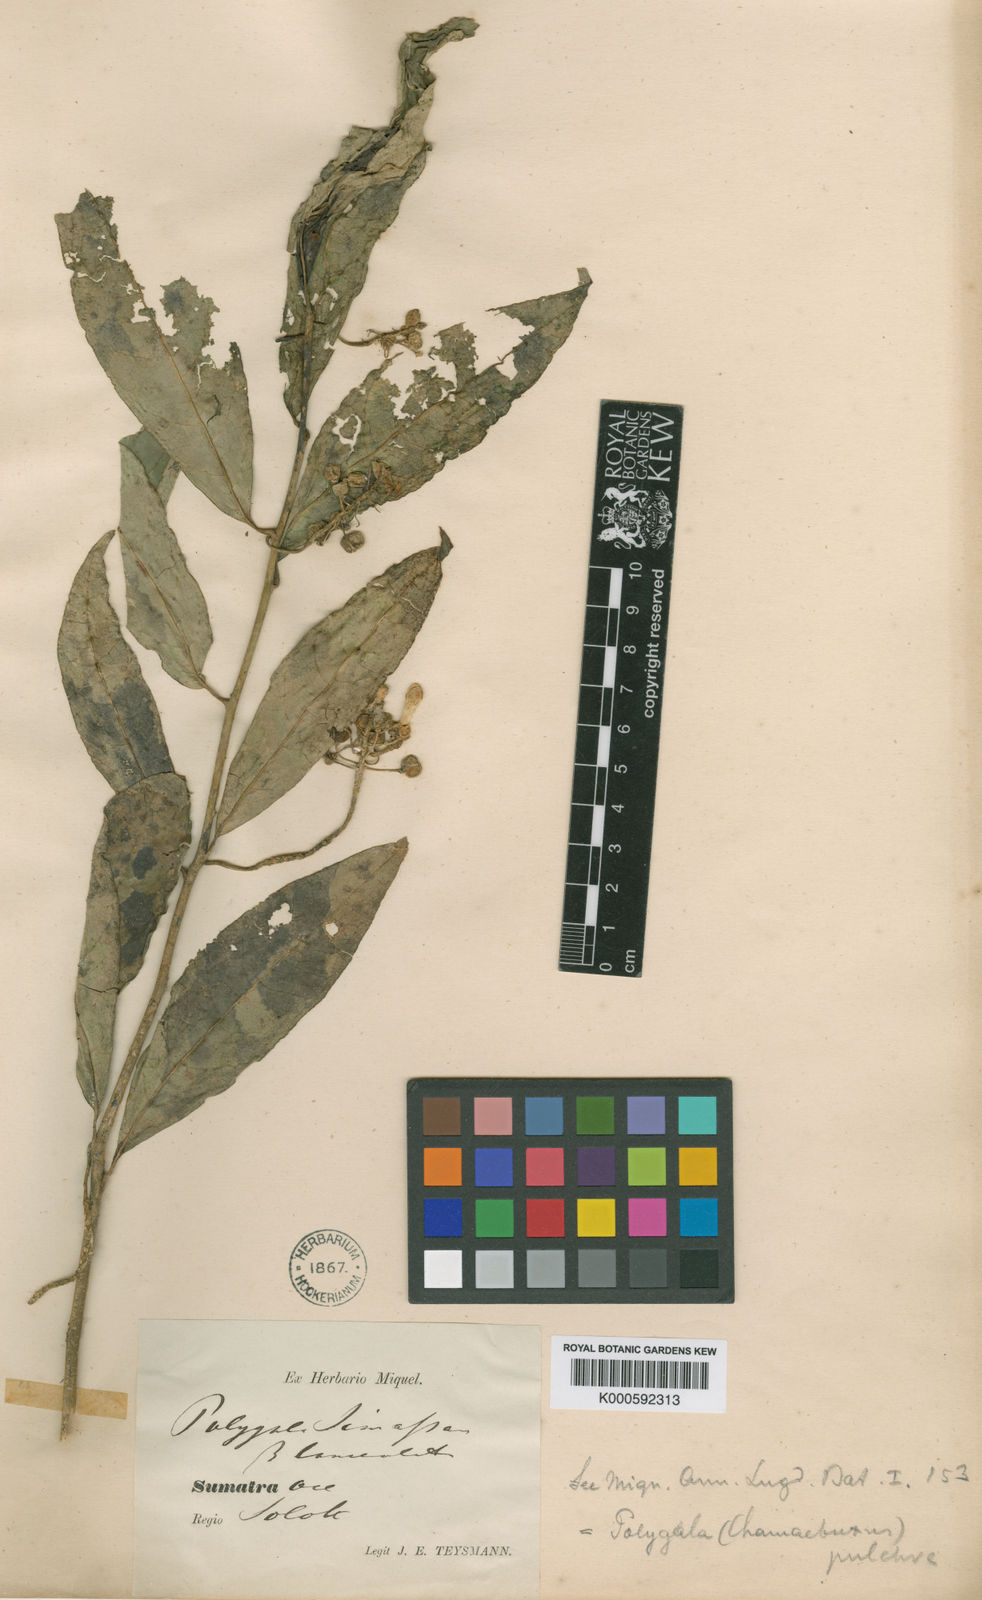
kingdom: Plantae
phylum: Tracheophyta
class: Magnoliopsida
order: Fabales
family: Polygalaceae
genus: Polygala
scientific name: Polygala venenosa
